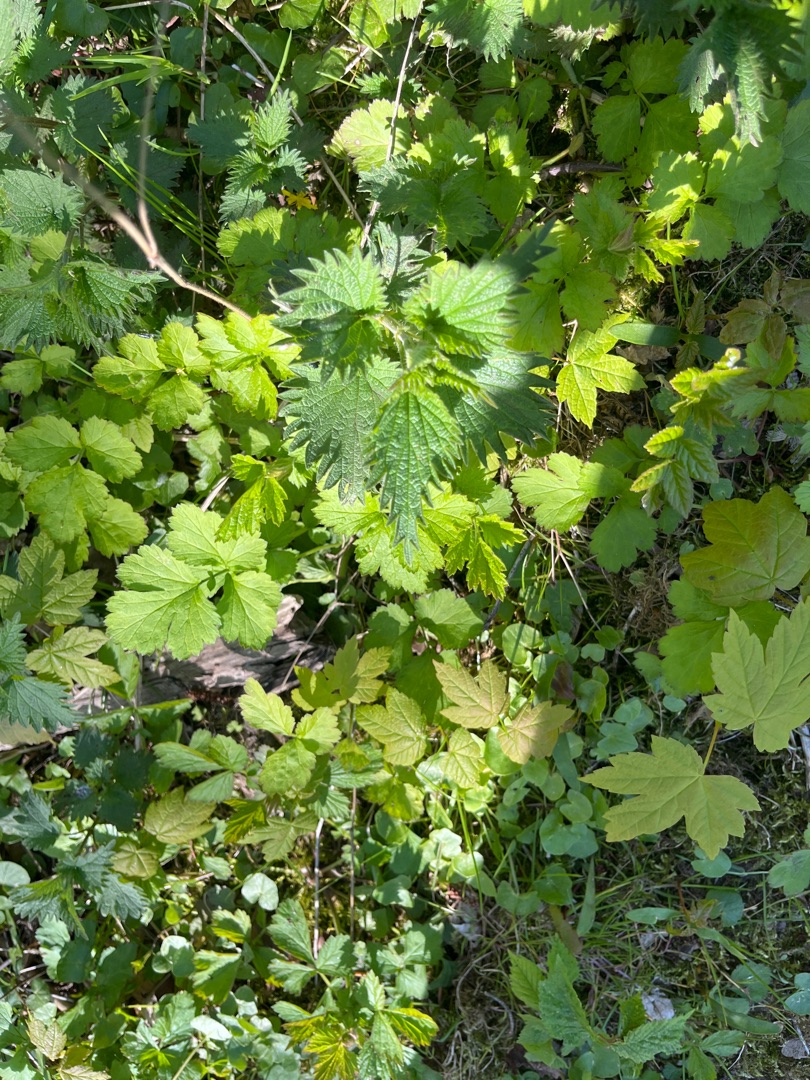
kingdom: Plantae
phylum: Tracheophyta
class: Magnoliopsida
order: Rosales
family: Urticaceae
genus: Urtica
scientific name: Urtica dioica
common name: Stor nælde
